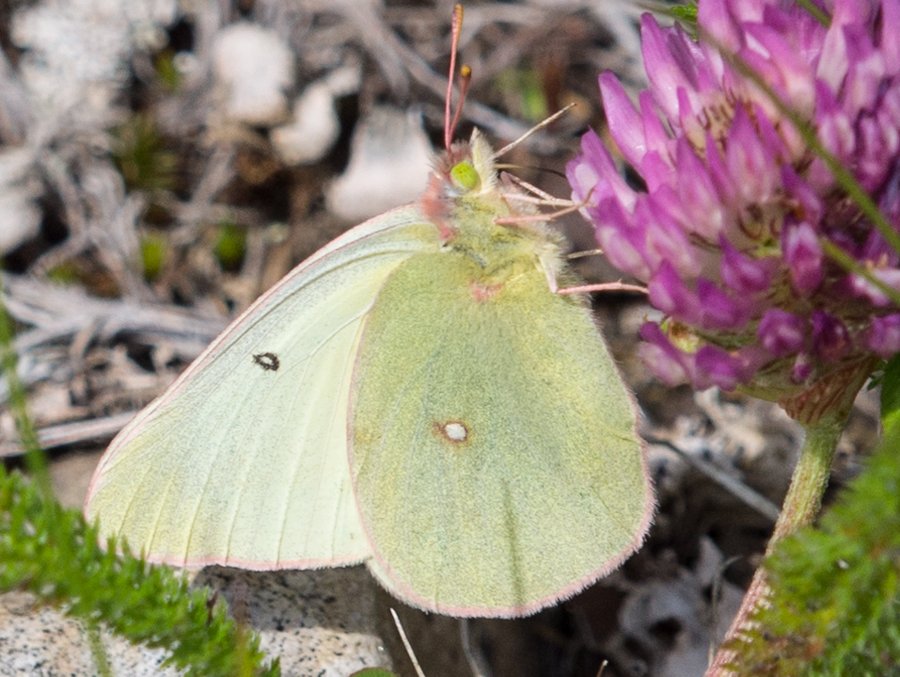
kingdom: Animalia
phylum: Arthropoda
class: Insecta
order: Lepidoptera
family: Pieridae
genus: Colias
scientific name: Colias christina
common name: Christina Sulphur
